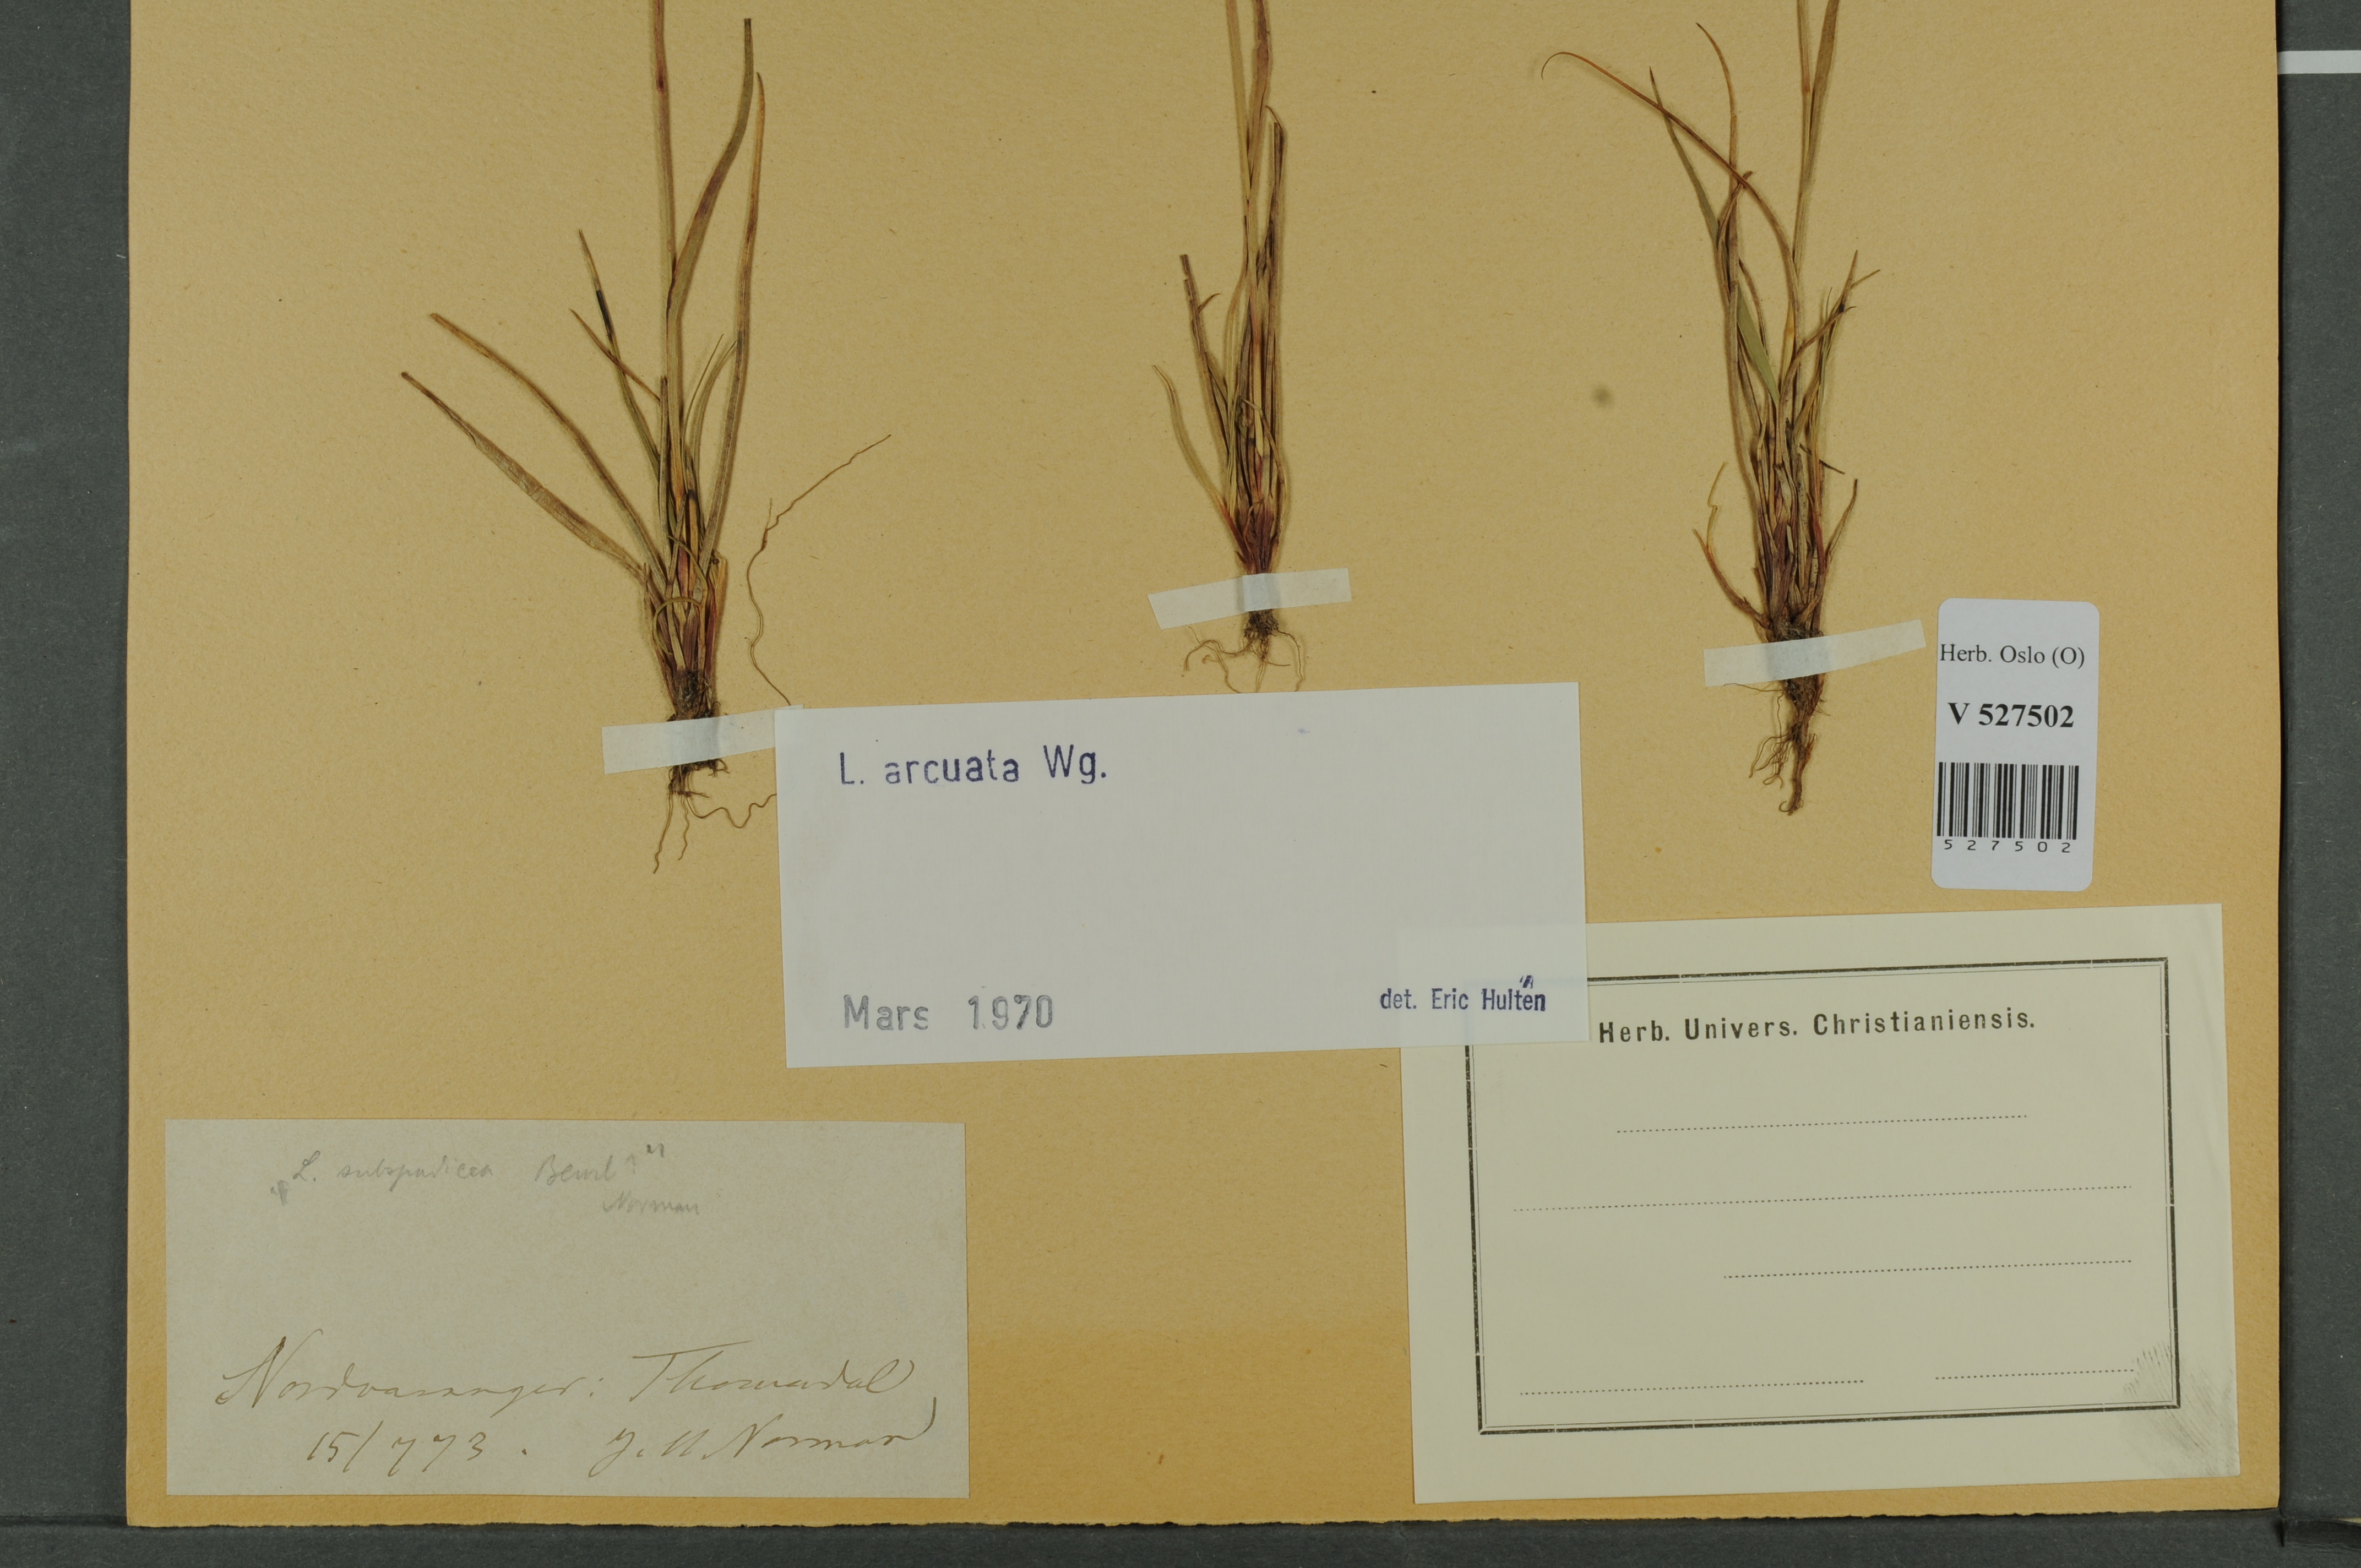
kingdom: Plantae
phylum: Tracheophyta
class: Liliopsida
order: Poales
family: Juncaceae
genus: Luzula
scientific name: Luzula arcuata
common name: Curved wood-rush
